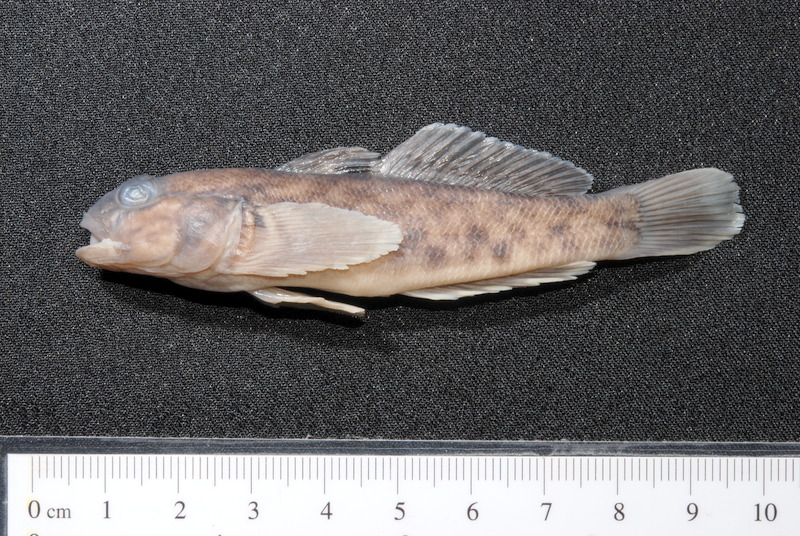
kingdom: Animalia
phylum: Chordata
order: Perciformes
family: Gobiidae
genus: Neogobius
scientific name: Neogobius melanostomus
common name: Round goby
